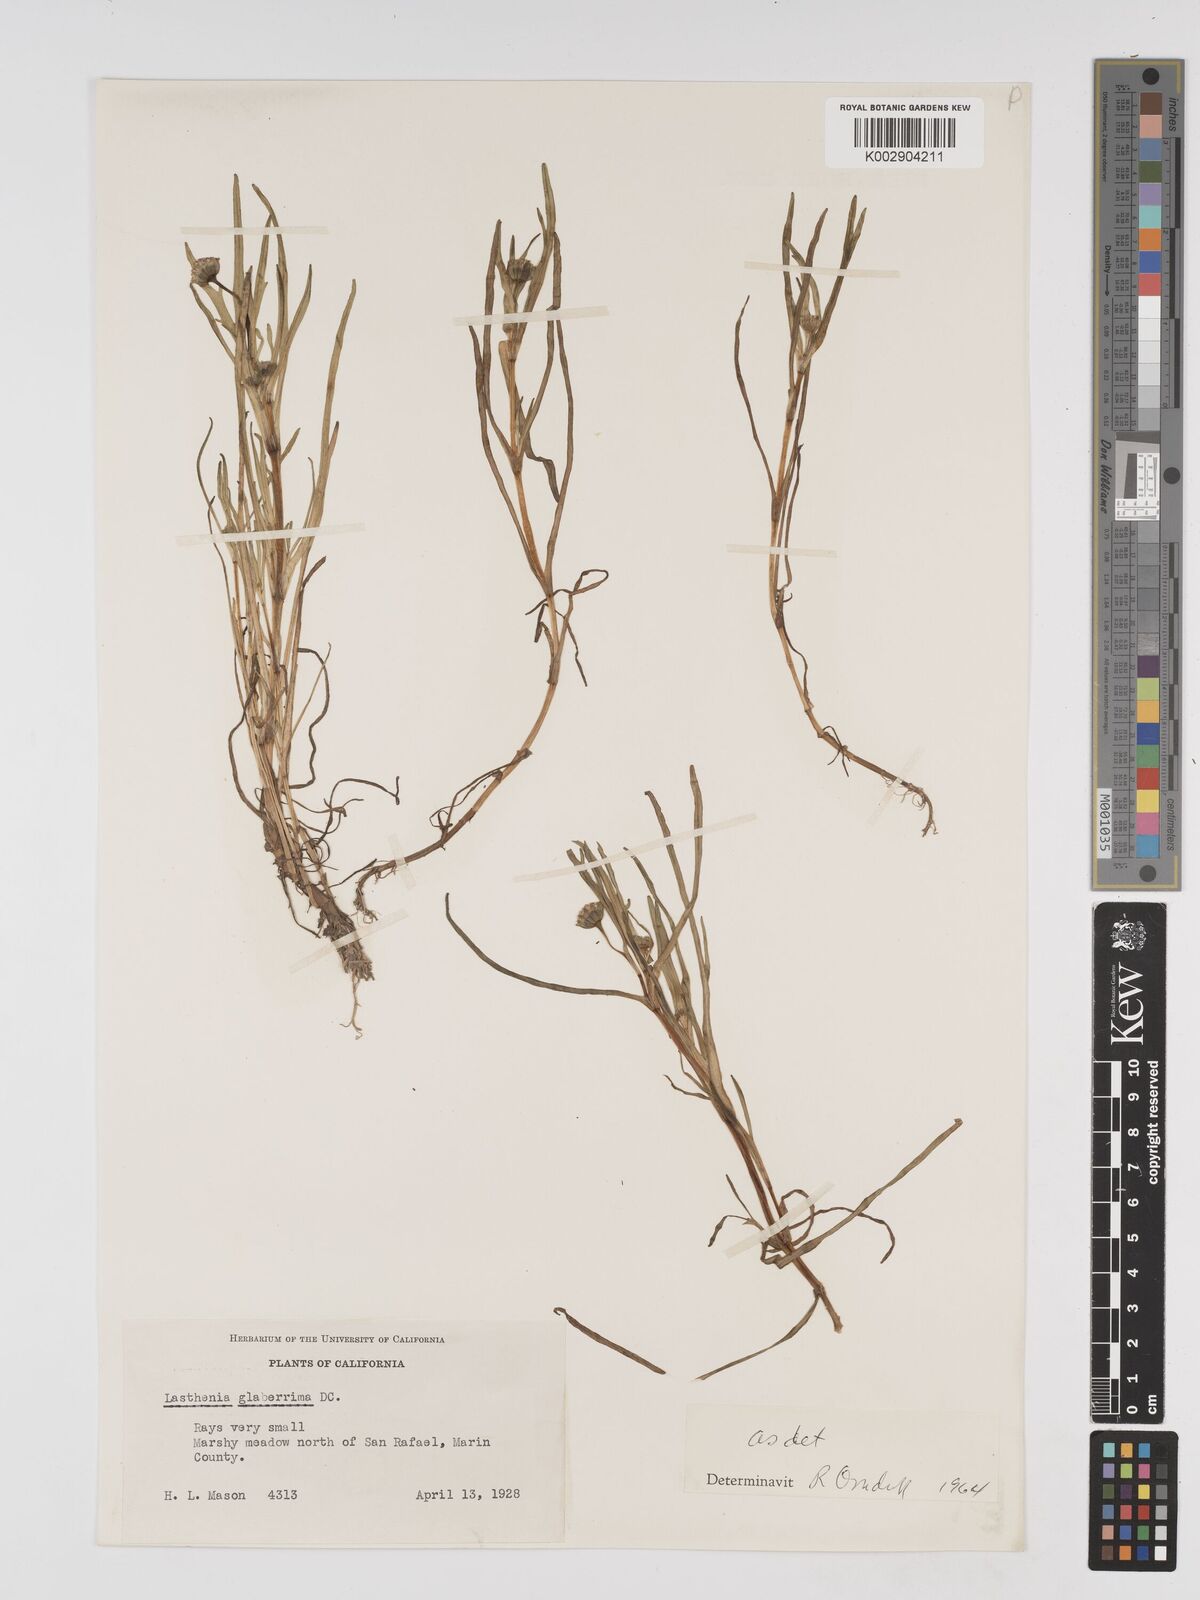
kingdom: Plantae
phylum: Tracheophyta
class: Magnoliopsida
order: Asterales
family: Asteraceae
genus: Lasthenia
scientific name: Lasthenia glaberrima
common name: Smooth goldfields
